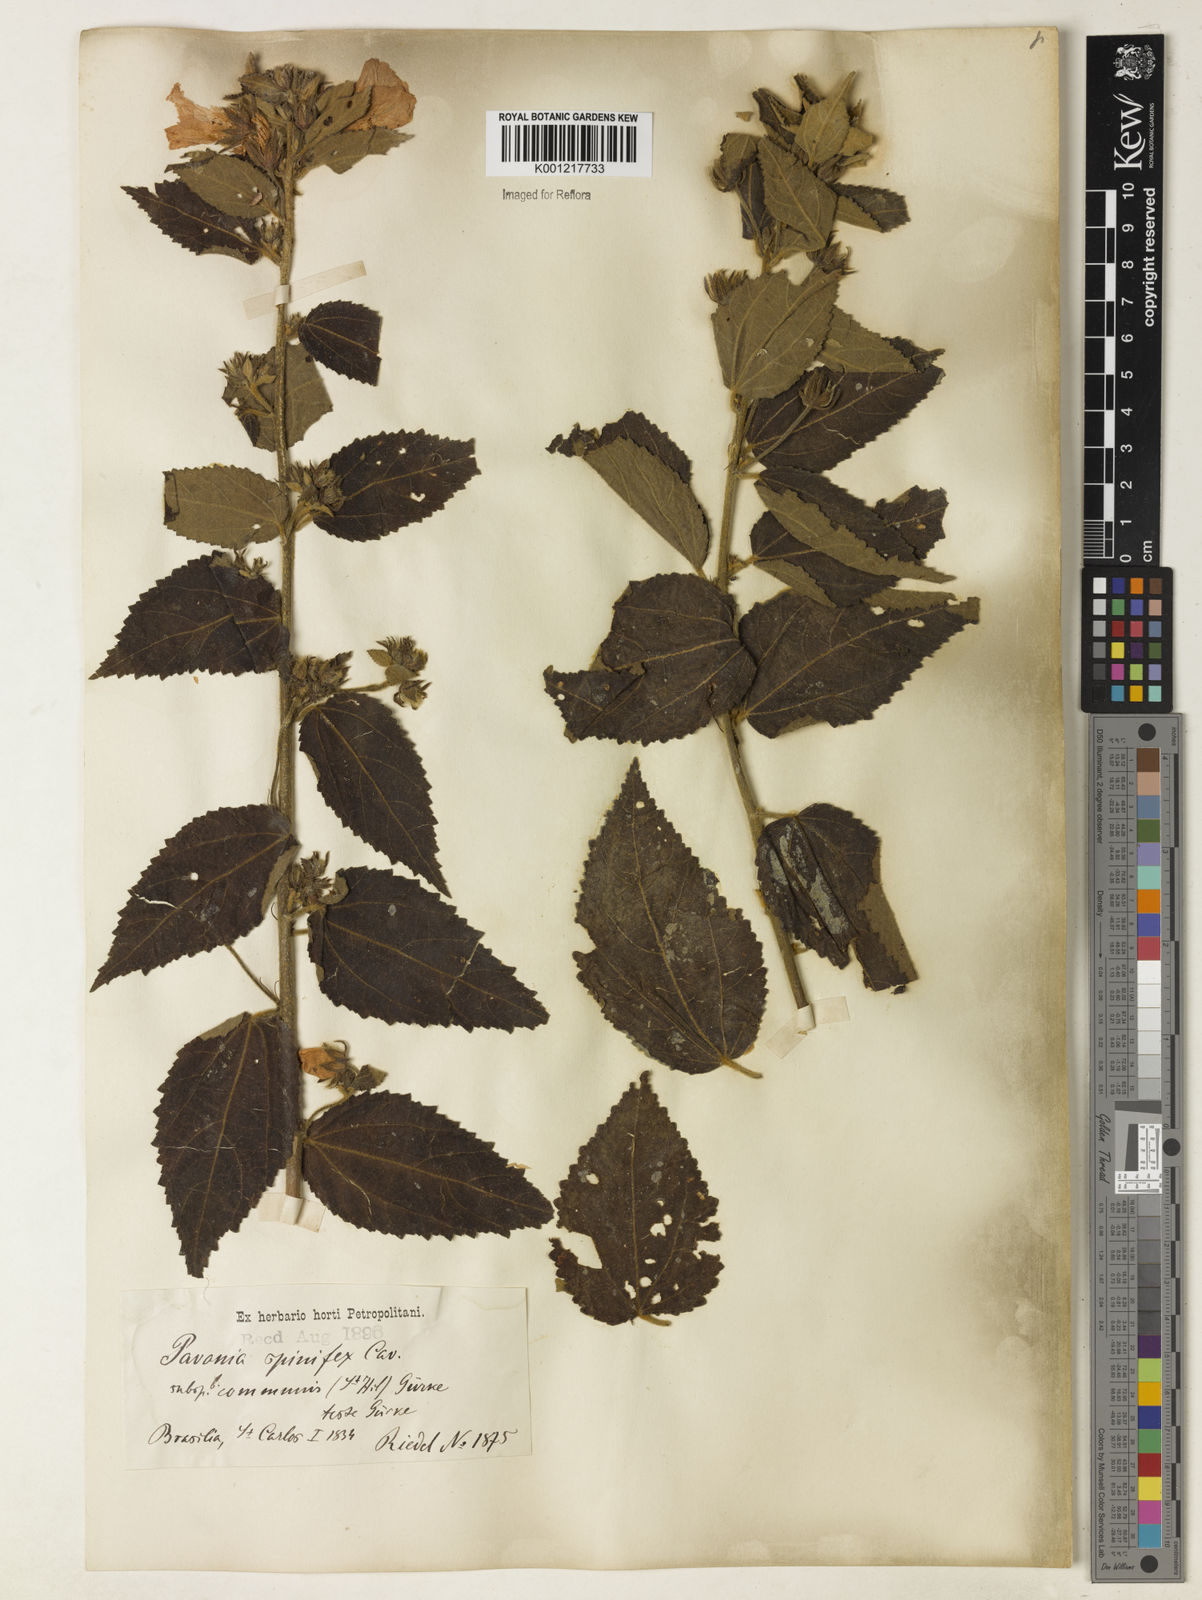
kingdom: Plantae
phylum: Tracheophyta
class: Magnoliopsida
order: Malvales
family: Malvaceae
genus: Pavonia
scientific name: Pavonia spinifex
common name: Ginger bush
